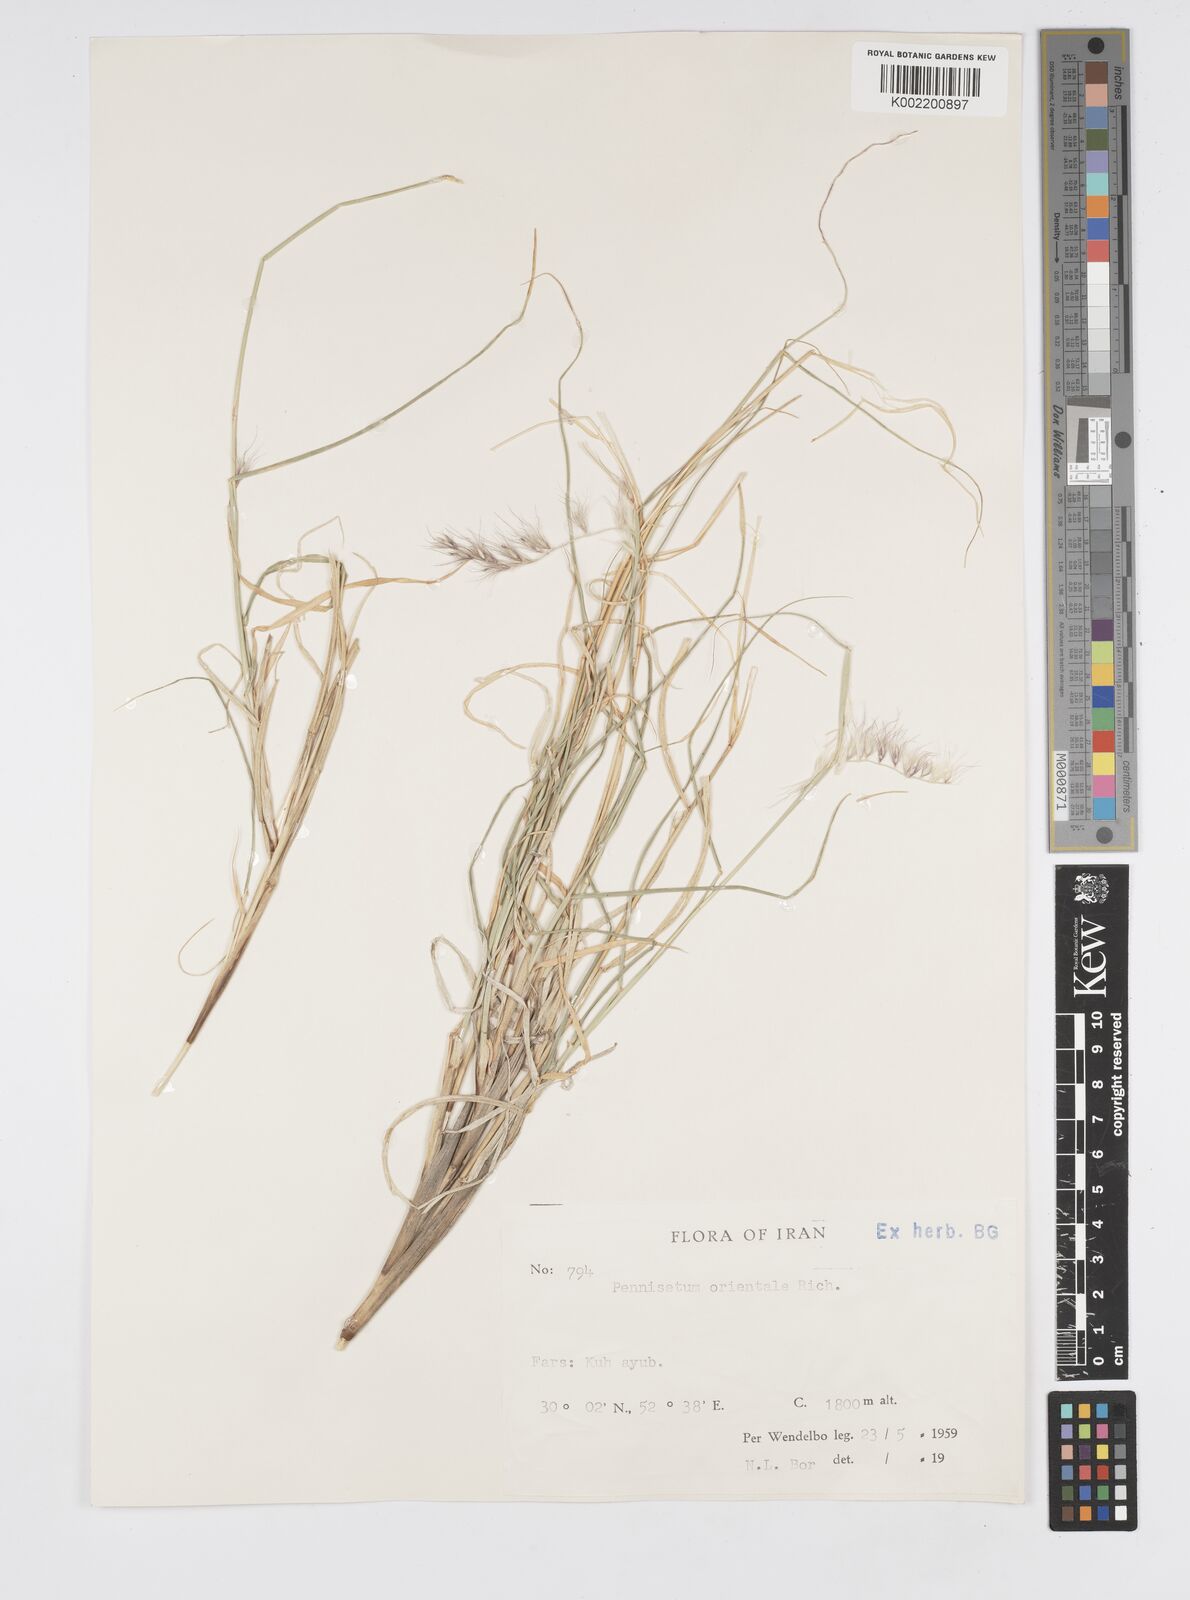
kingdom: Plantae
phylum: Tracheophyta
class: Liliopsida
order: Poales
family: Poaceae
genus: Cenchrus
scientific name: Cenchrus orientalis
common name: Oriental fountain grass
